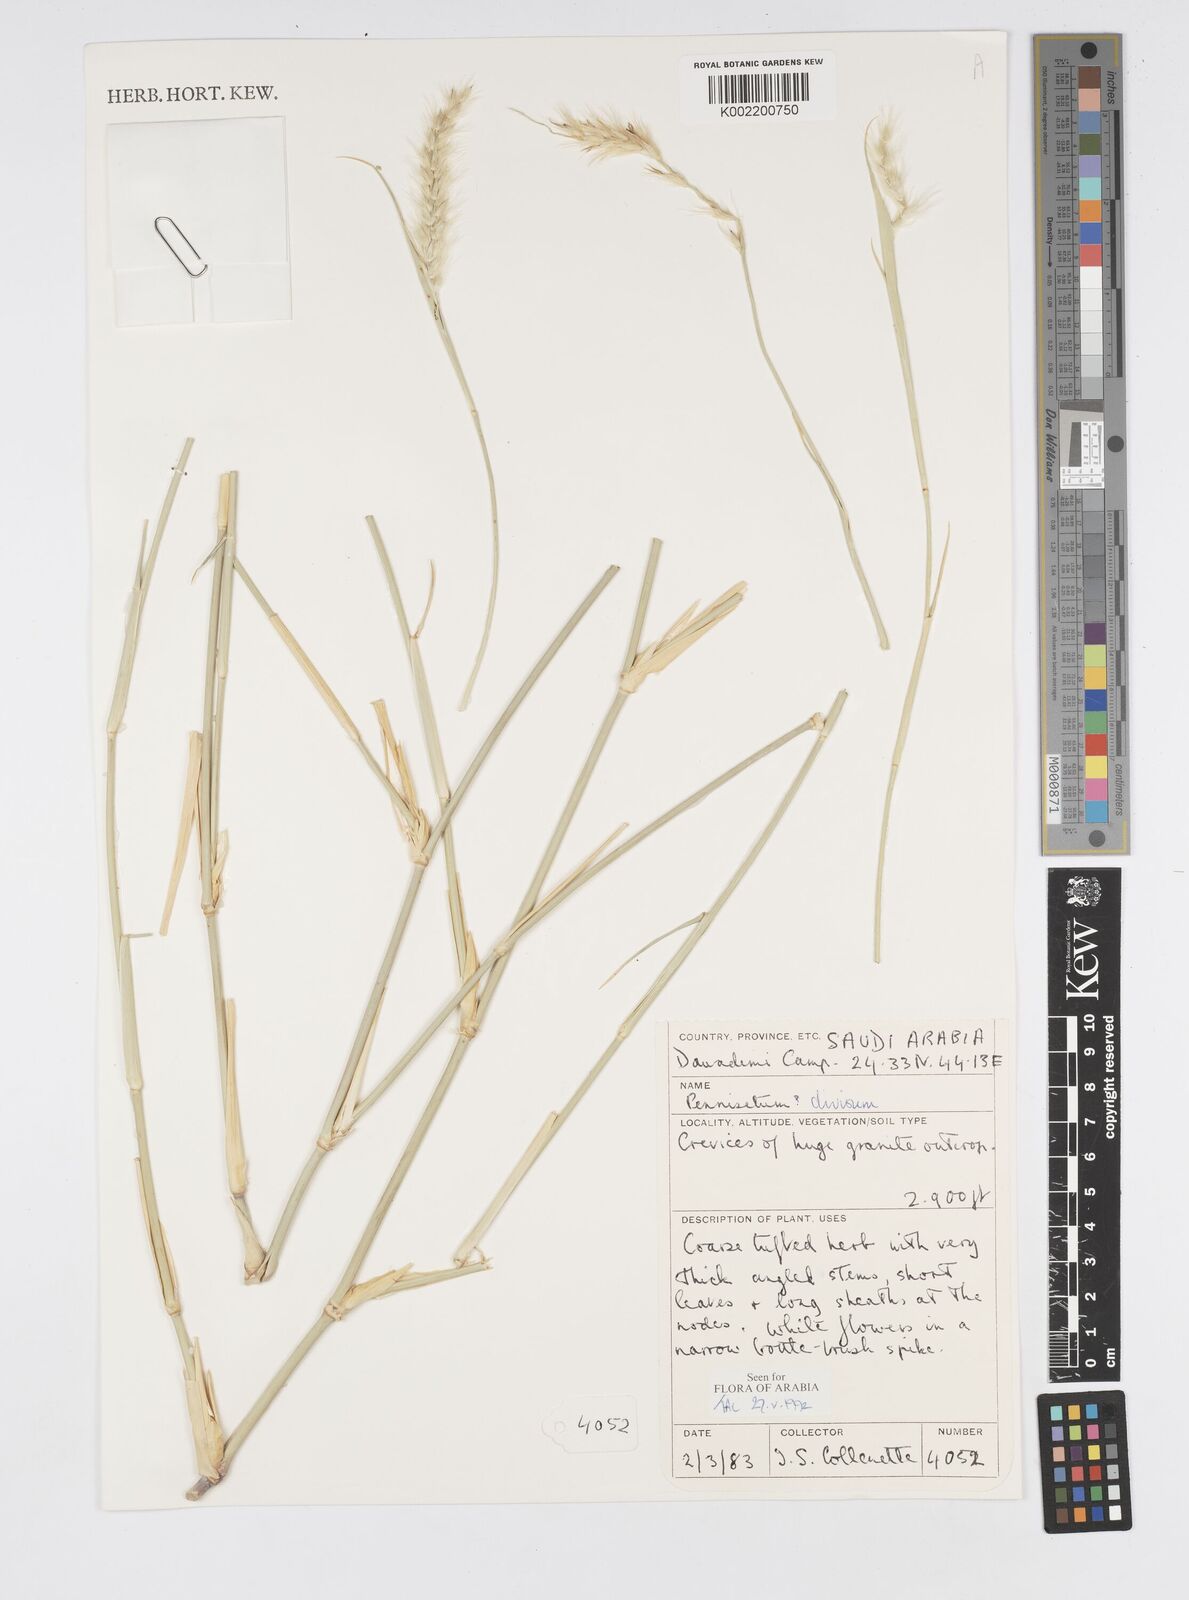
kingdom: Plantae
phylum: Tracheophyta
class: Liliopsida
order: Poales
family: Poaceae
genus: Cenchrus
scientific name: Cenchrus divisus
